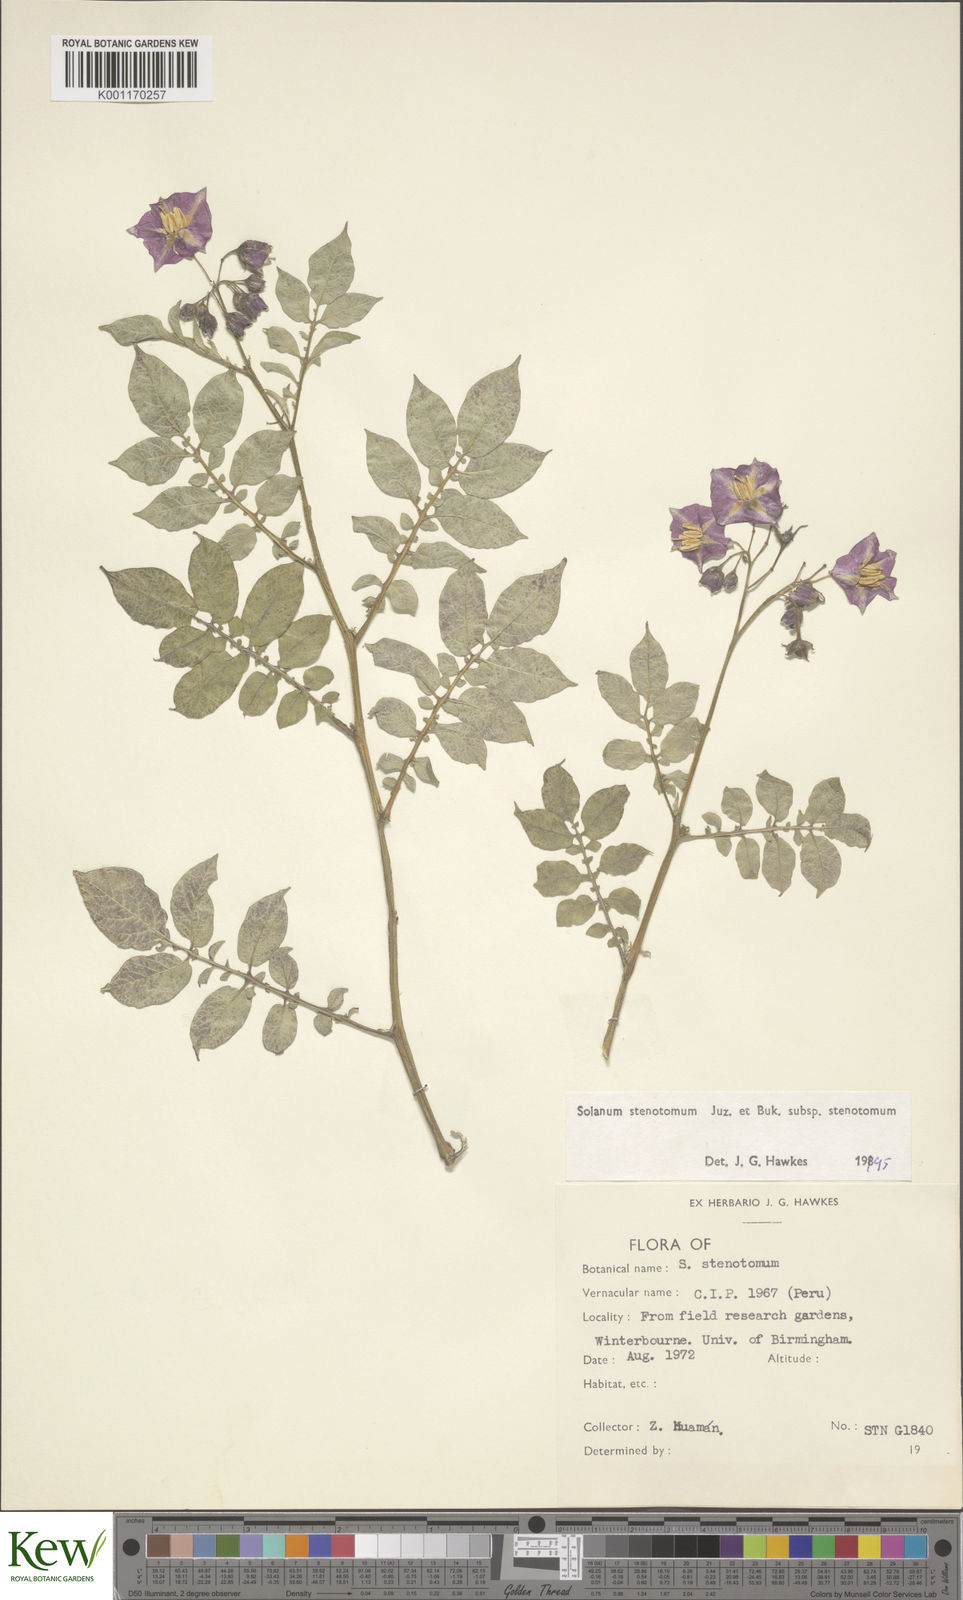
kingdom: Plantae
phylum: Tracheophyta
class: Magnoliopsida
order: Solanales
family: Solanaceae
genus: Solanum
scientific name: Solanum tuberosum
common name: Potato
